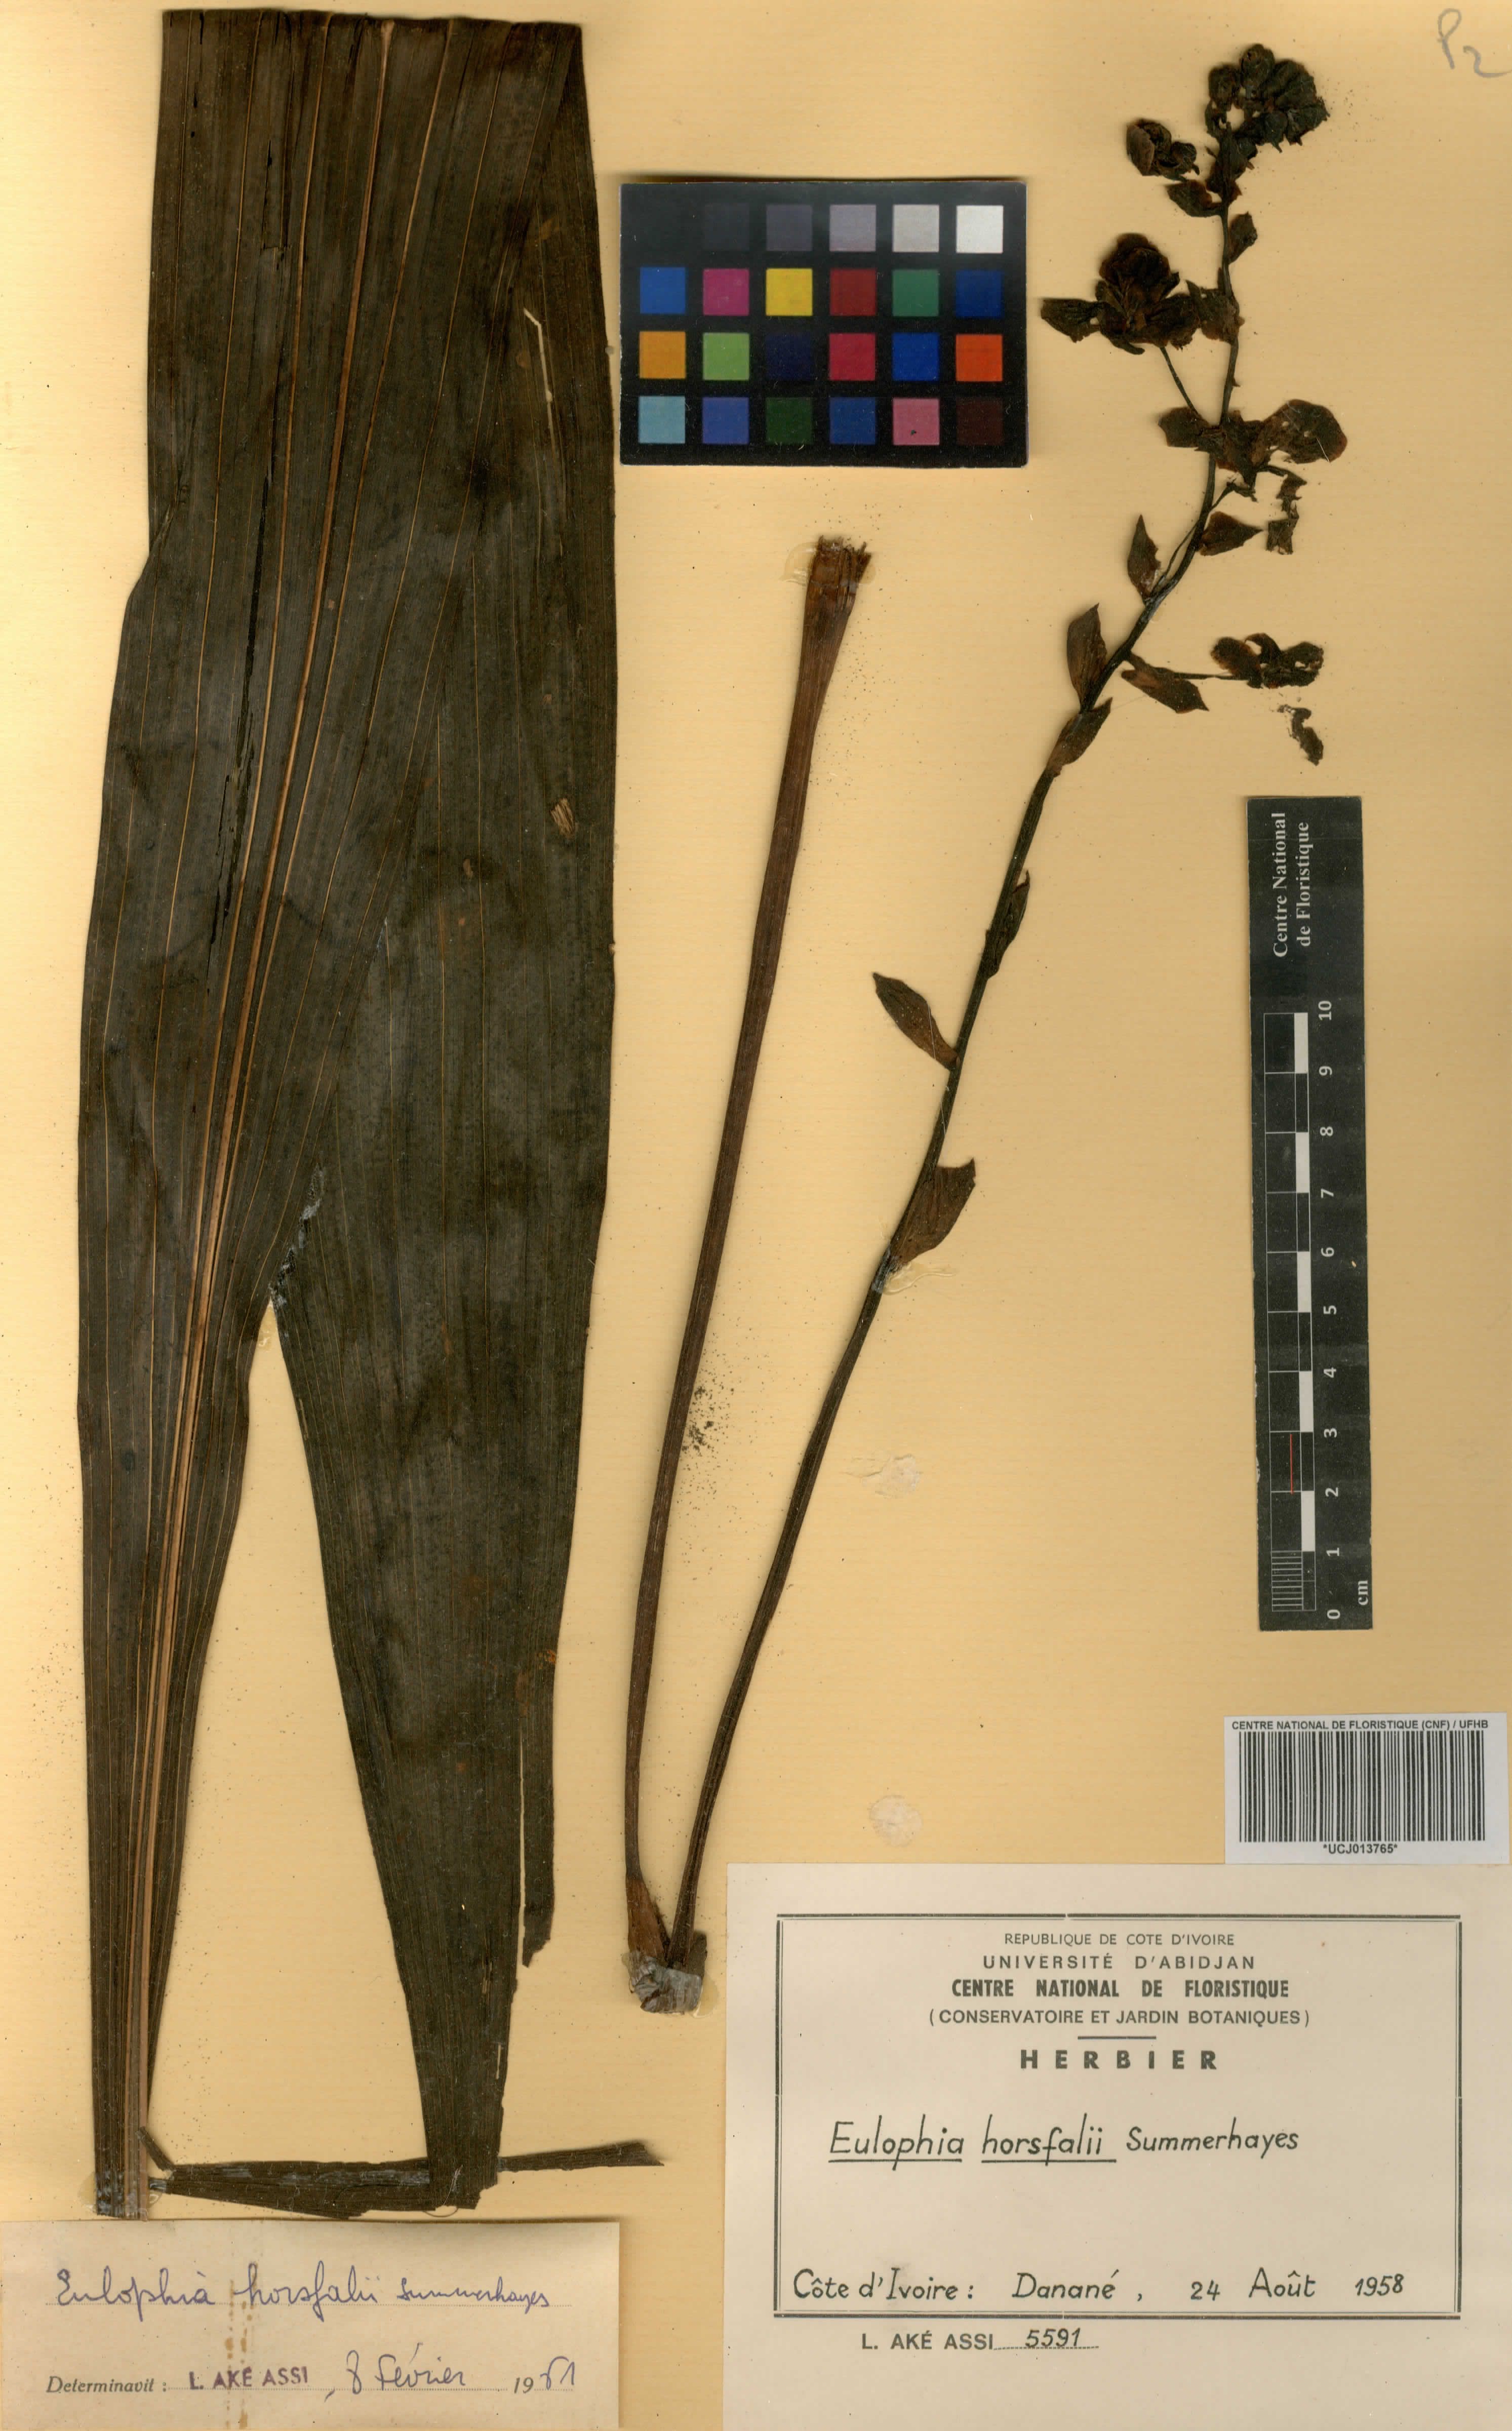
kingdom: Plantae
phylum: Tracheophyta
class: Liliopsida
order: Asparagales
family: Orchidaceae
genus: Eulophia
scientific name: Eulophia horsfallii
